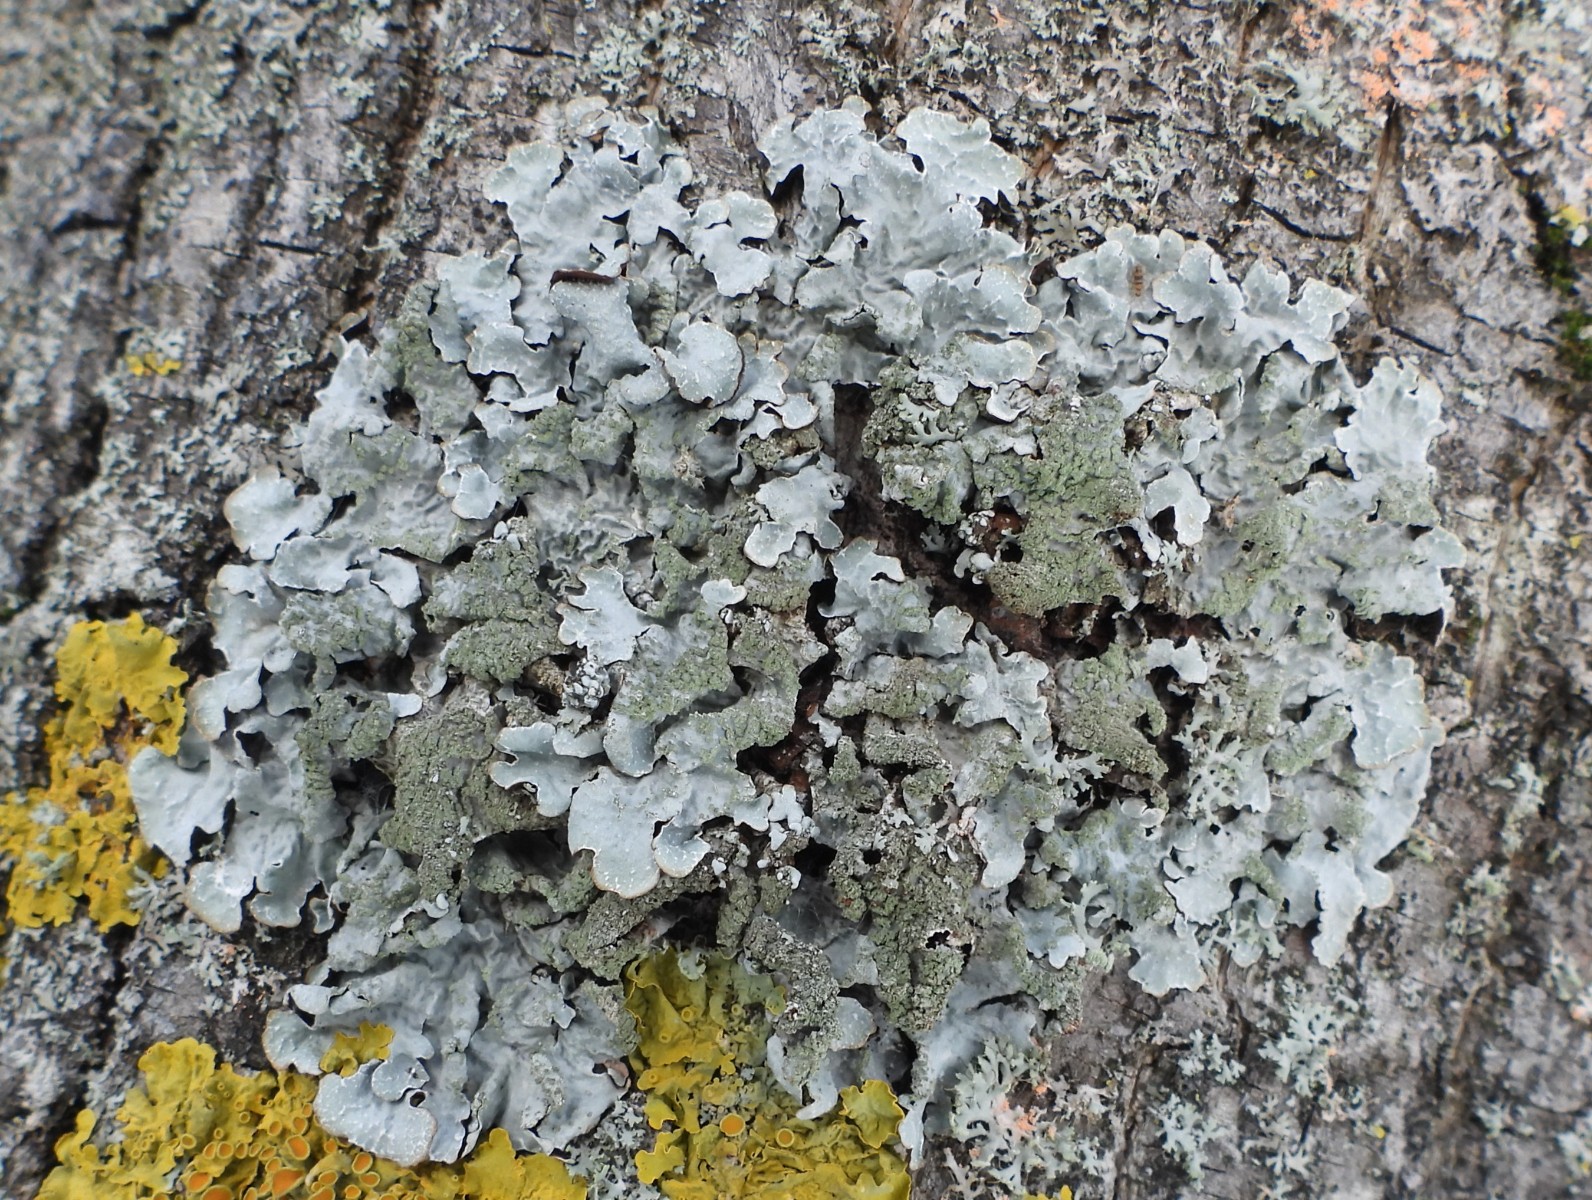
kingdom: Fungi
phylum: Ascomycota
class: Lecanoromycetes
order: Lecanorales
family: Parmeliaceae
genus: Parmelia
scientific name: Parmelia sulcata
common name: rynket skållav
